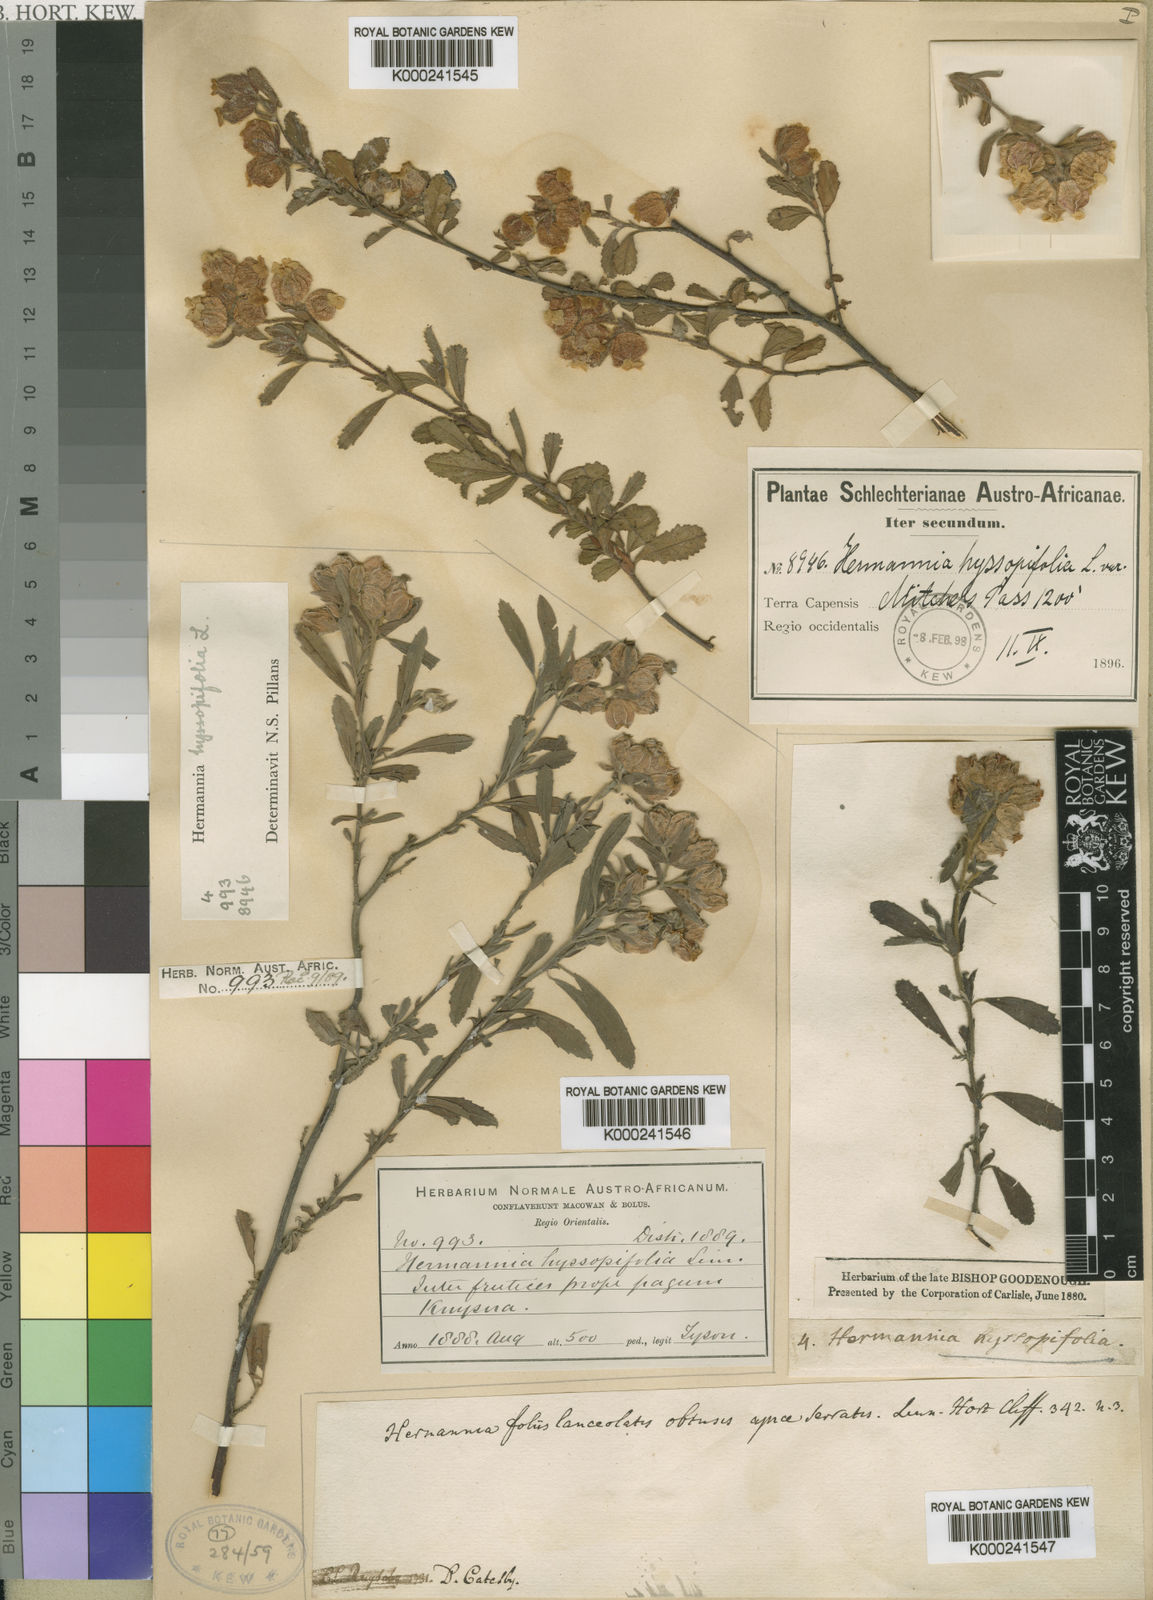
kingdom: Plantae
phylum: Tracheophyta
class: Magnoliopsida
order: Malvales
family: Malvaceae
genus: Hermannia
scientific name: Hermannia hyssopifolia
